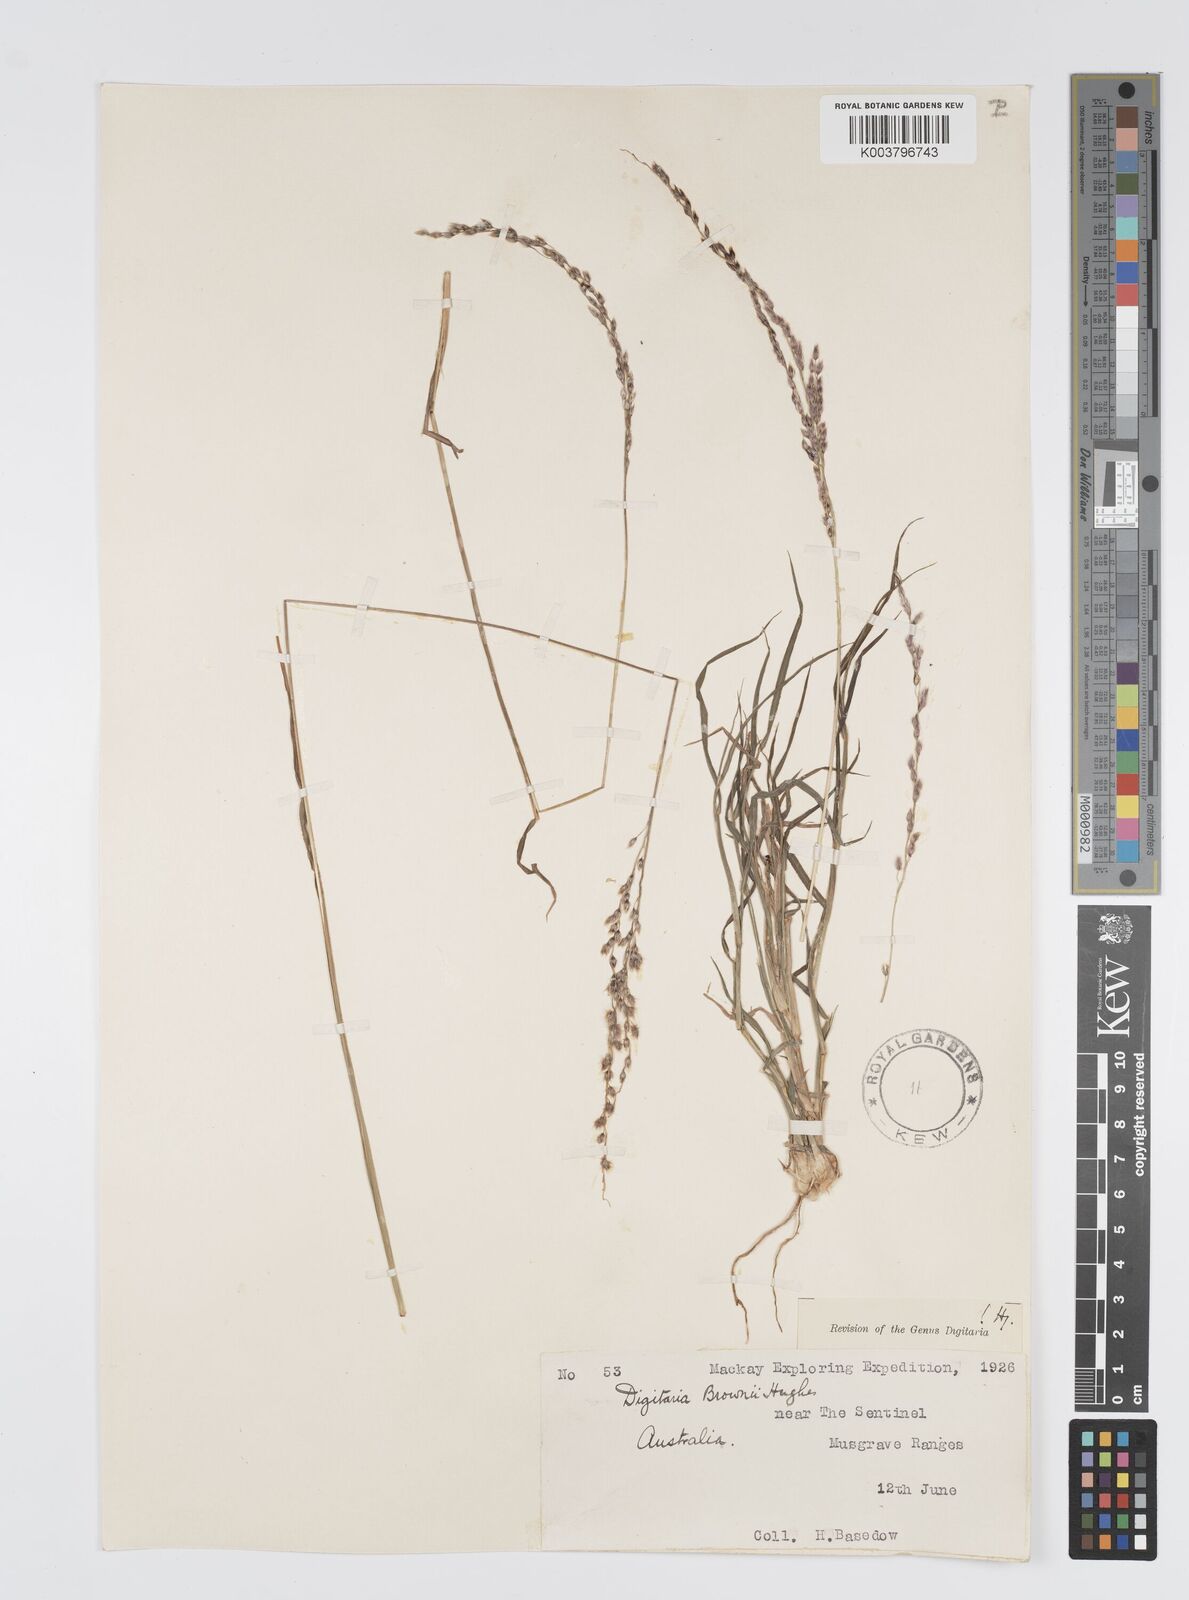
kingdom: Plantae
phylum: Tracheophyta
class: Liliopsida
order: Poales
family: Poaceae
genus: Digitaria
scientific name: Digitaria brownii
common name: Cotton grass
